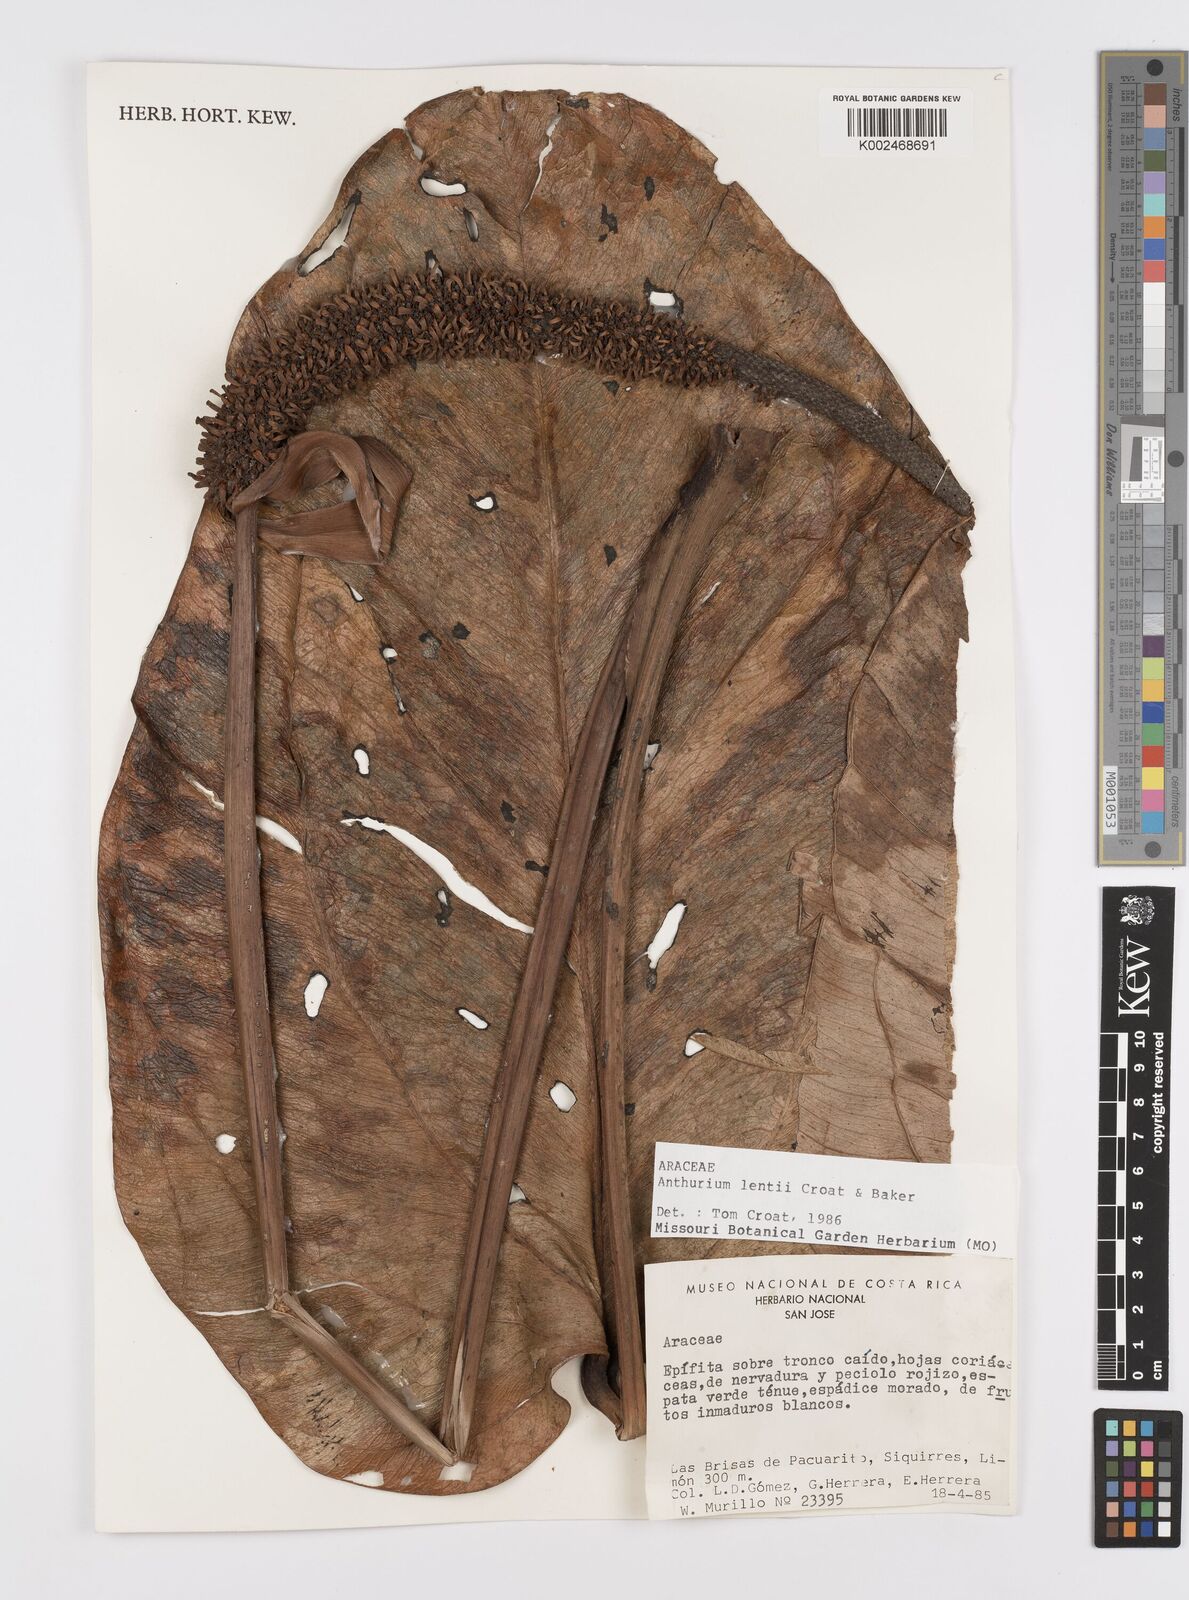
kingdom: Plantae
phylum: Tracheophyta
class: Liliopsida
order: Alismatales
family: Araceae
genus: Anthurium
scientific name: Anthurium lentii
